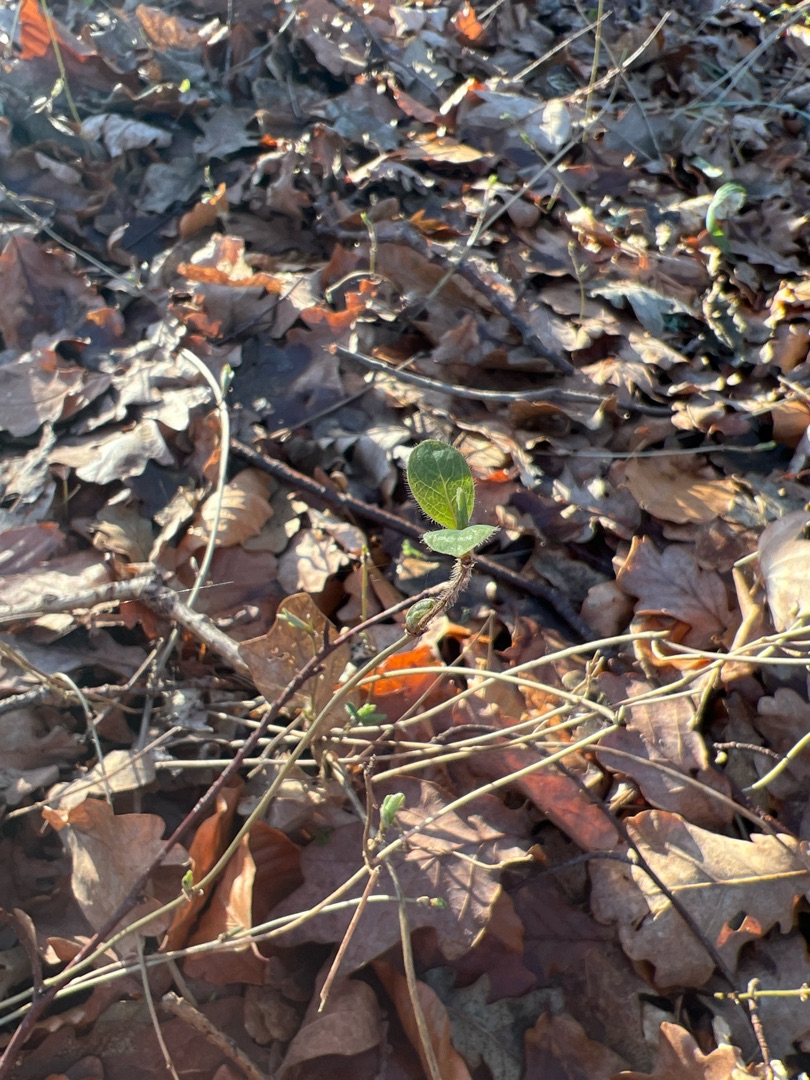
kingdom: Plantae
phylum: Tracheophyta
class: Magnoliopsida
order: Dipsacales
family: Caprifoliaceae
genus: Lonicera
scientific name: Lonicera periclymenum
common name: Almindelig gedeblad
